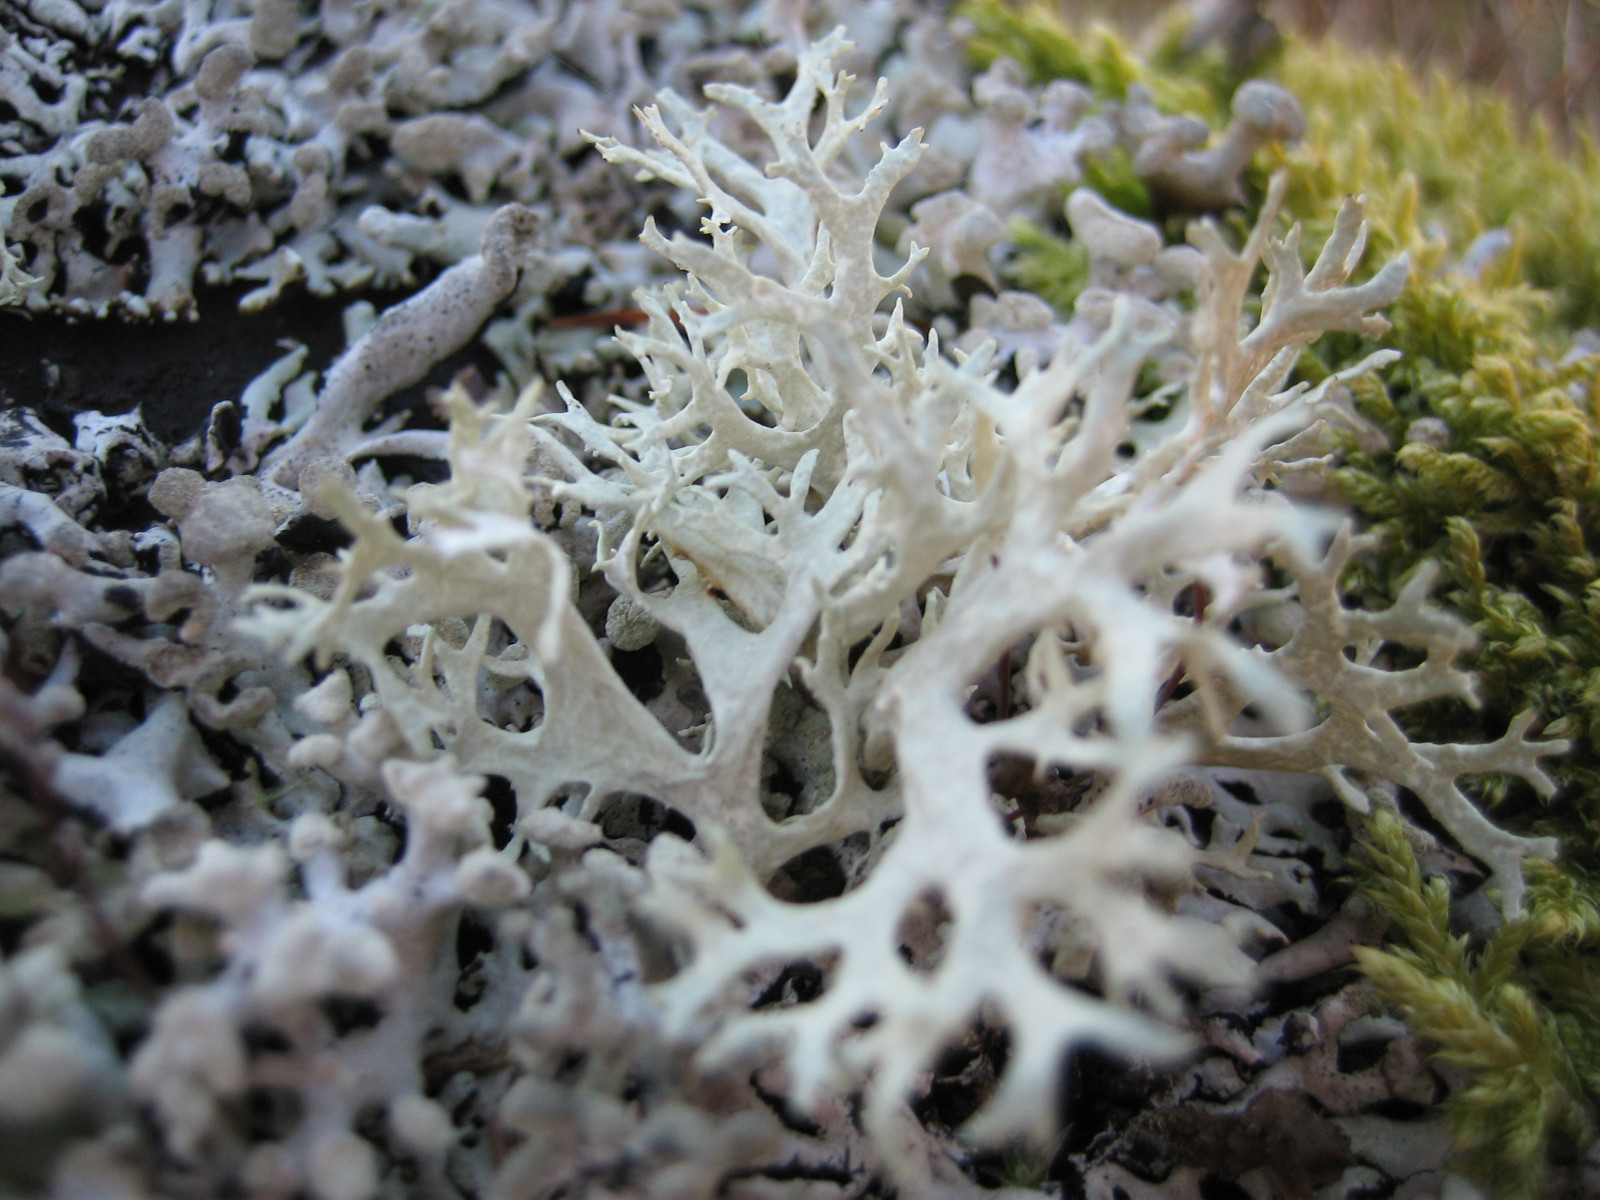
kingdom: Fungi
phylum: Ascomycota
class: Lecanoromycetes
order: Lecanorales
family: Parmeliaceae
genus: Evernia
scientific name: Evernia prunastri
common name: almindelig slåenlav
